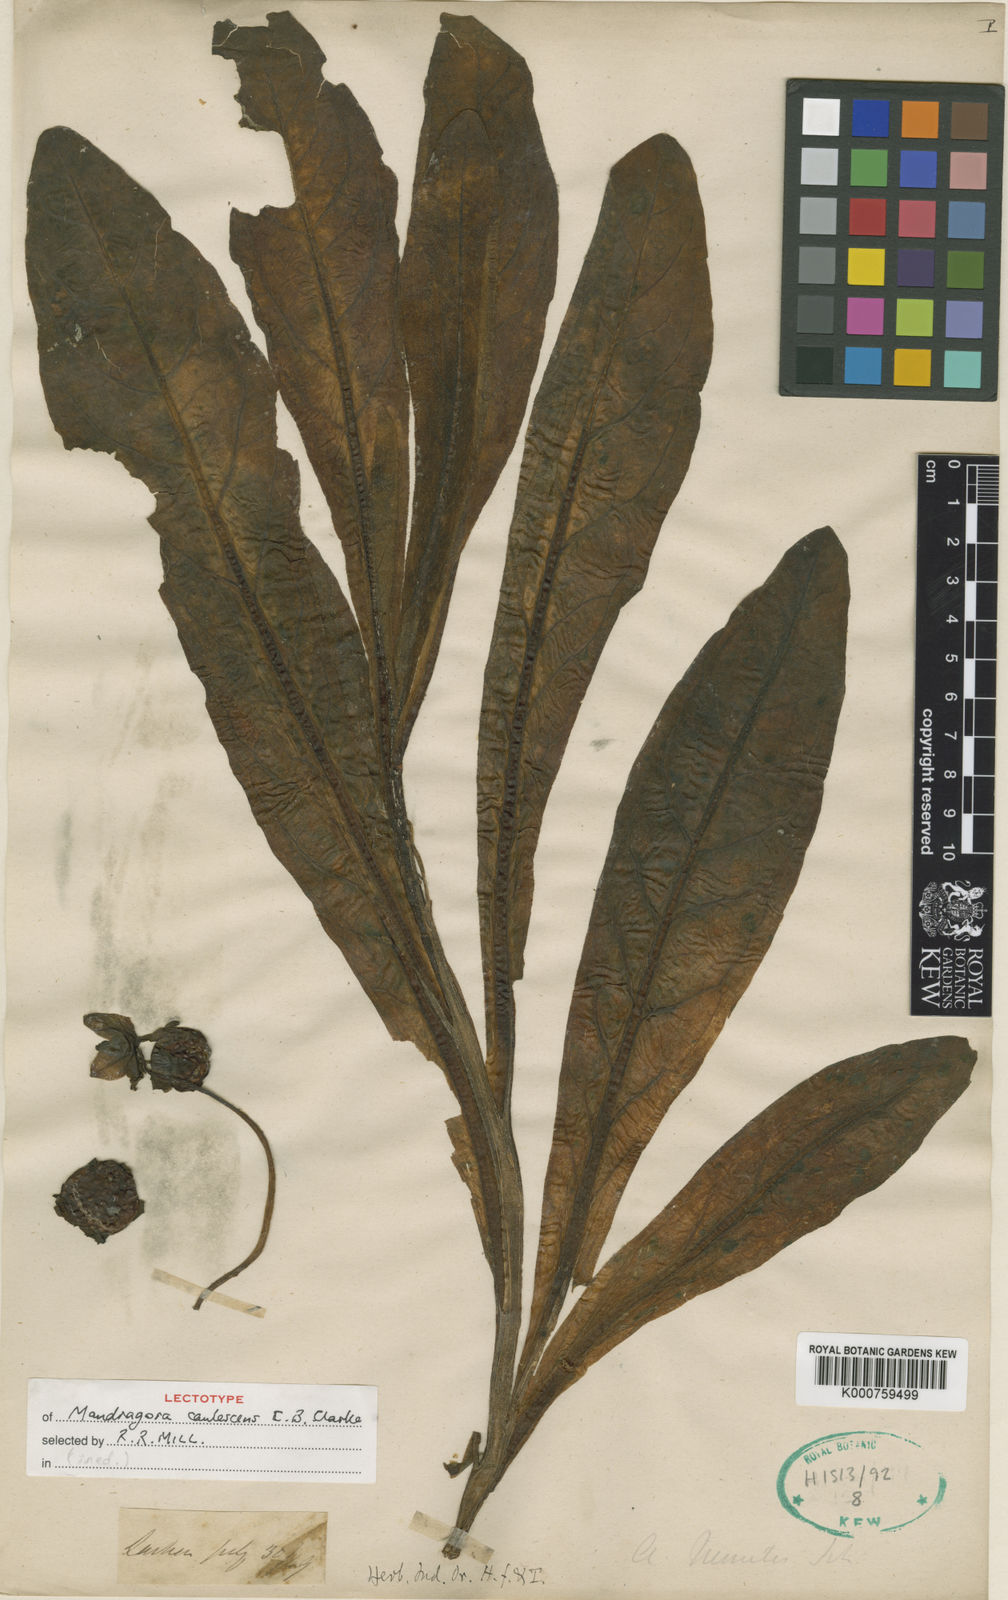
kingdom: Plantae
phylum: Tracheophyta
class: Magnoliopsida
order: Solanales
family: Solanaceae
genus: Mandragora
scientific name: Mandragora caulescens
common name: Himalayan mandrake
